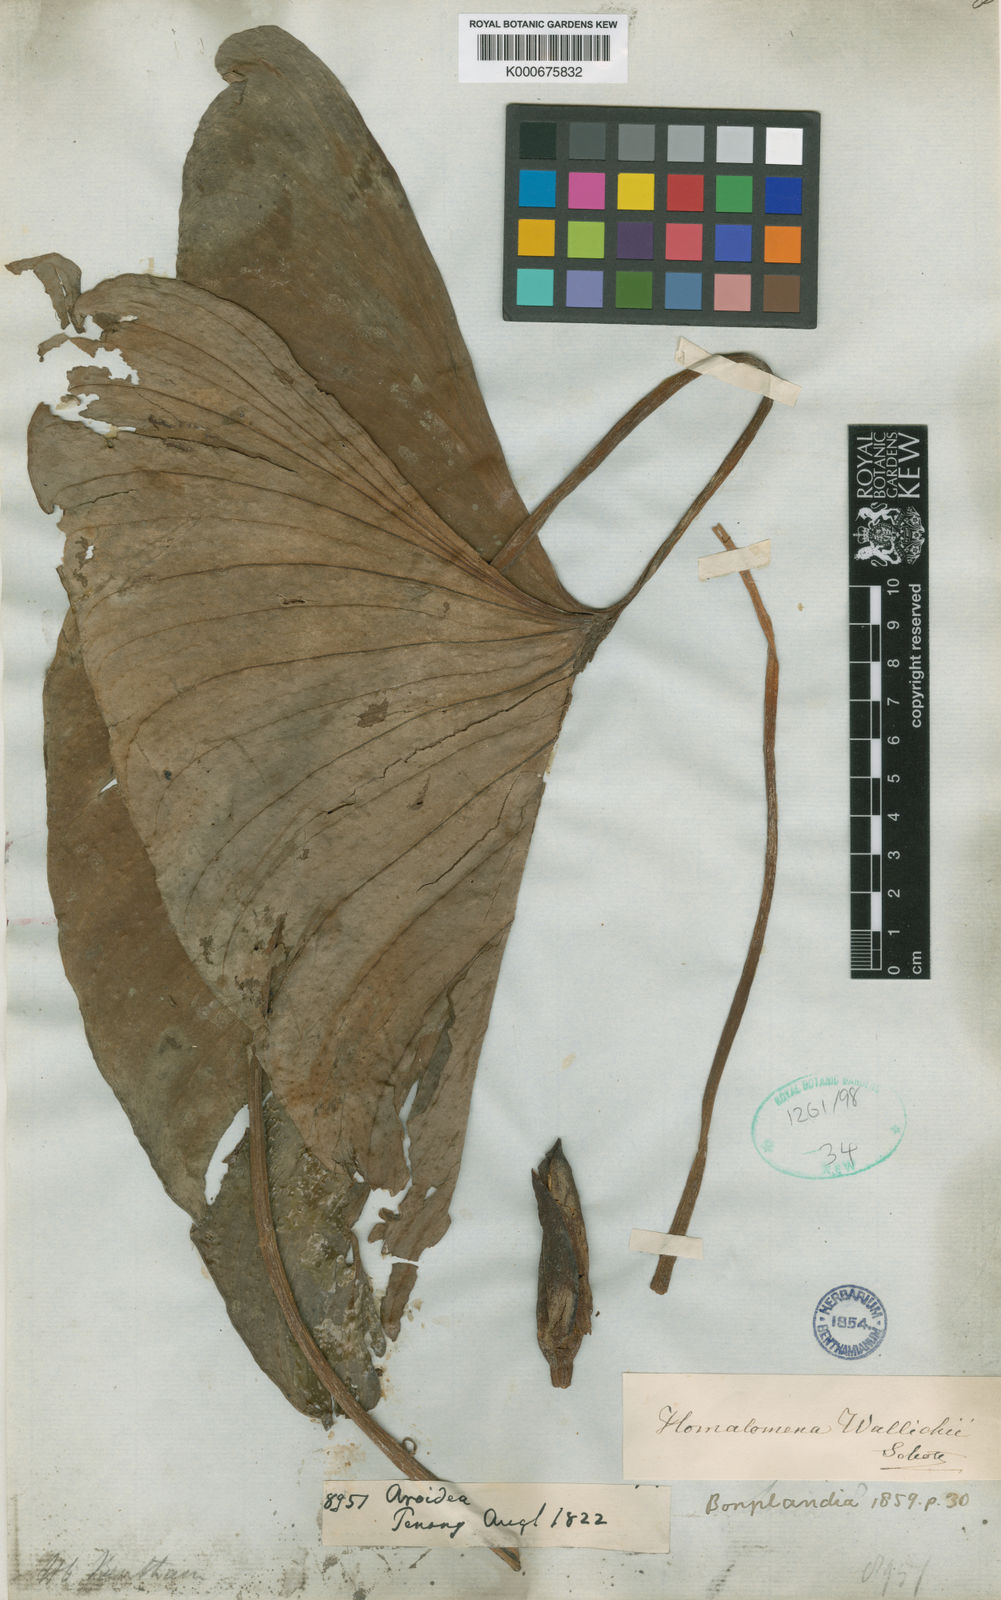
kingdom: Plantae
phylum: Tracheophyta
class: Liliopsida
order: Alismatales
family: Araceae
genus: Homalomena
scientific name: Homalomena wallichii
